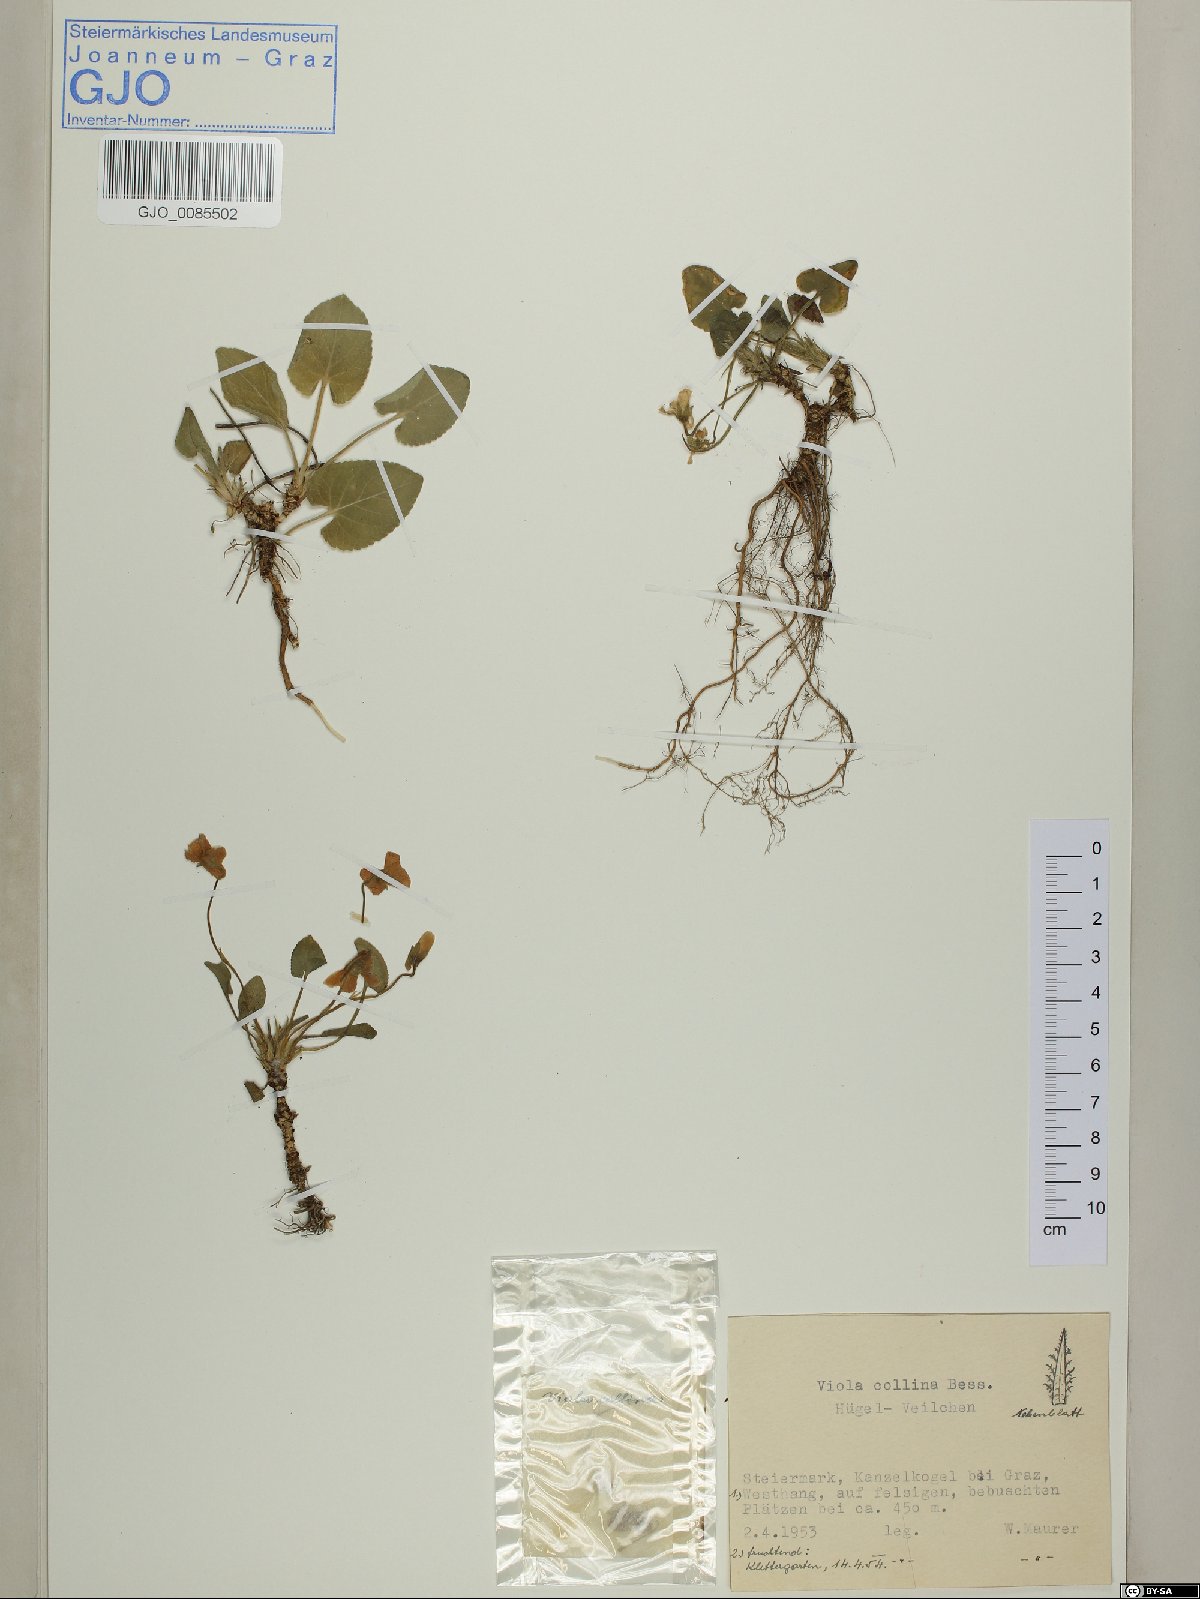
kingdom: Plantae
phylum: Tracheophyta
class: Magnoliopsida
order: Malpighiales
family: Violaceae
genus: Viola
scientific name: Viola collina
